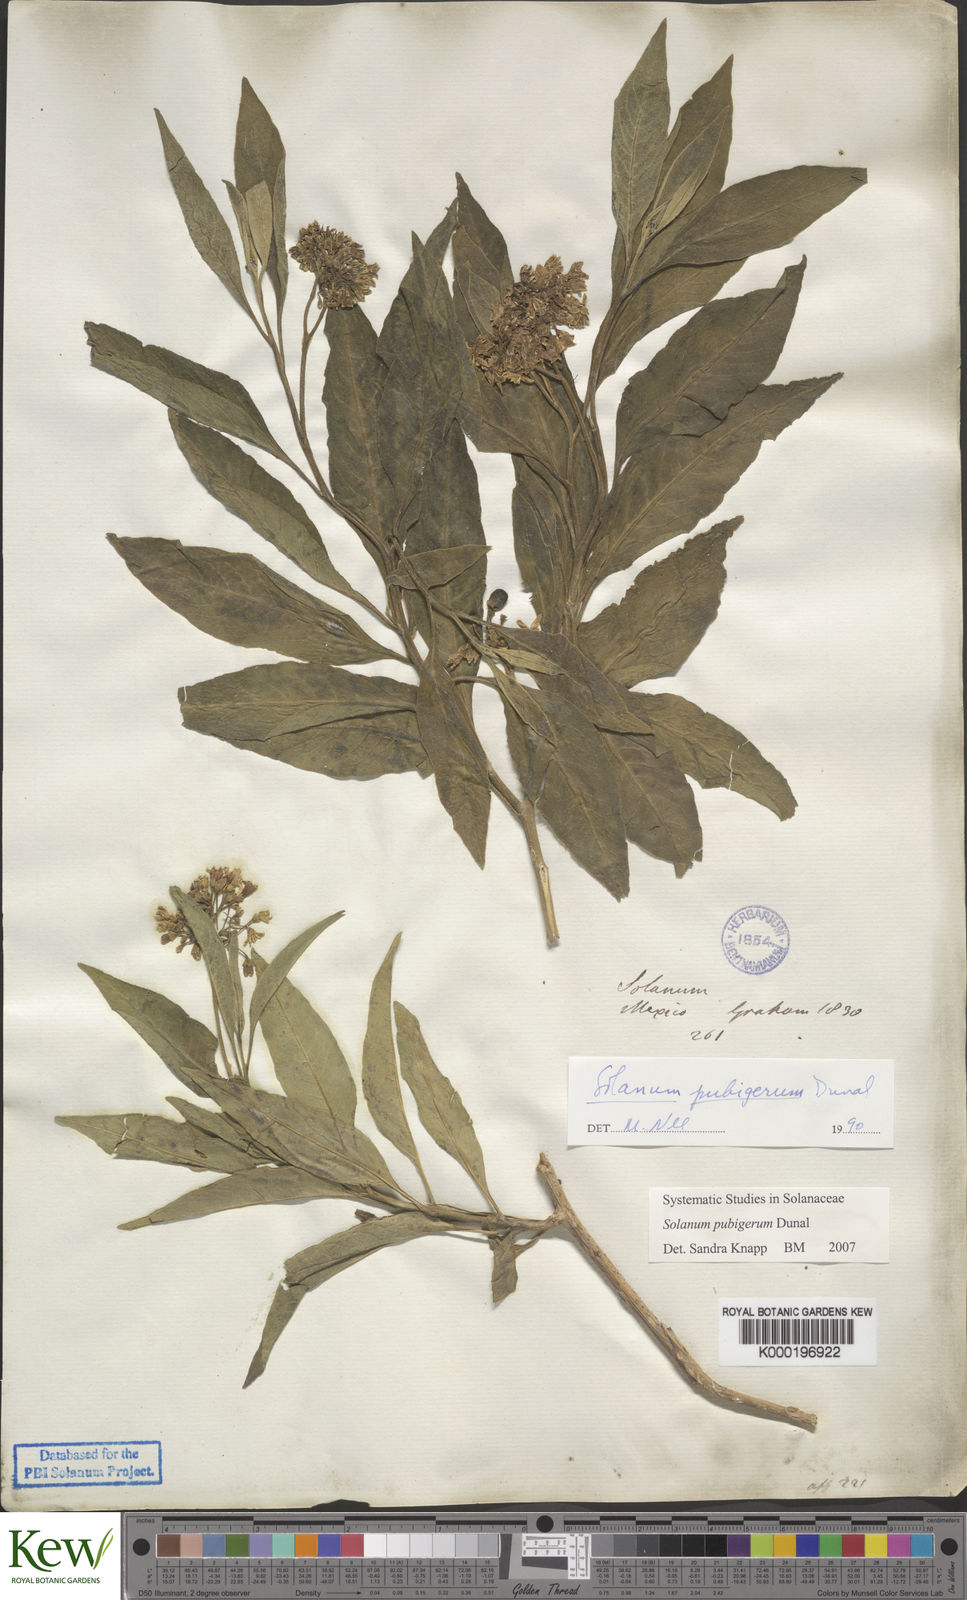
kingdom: Plantae
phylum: Tracheophyta
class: Magnoliopsida
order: Solanales
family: Solanaceae
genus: Solanum
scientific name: Solanum pubigerum
